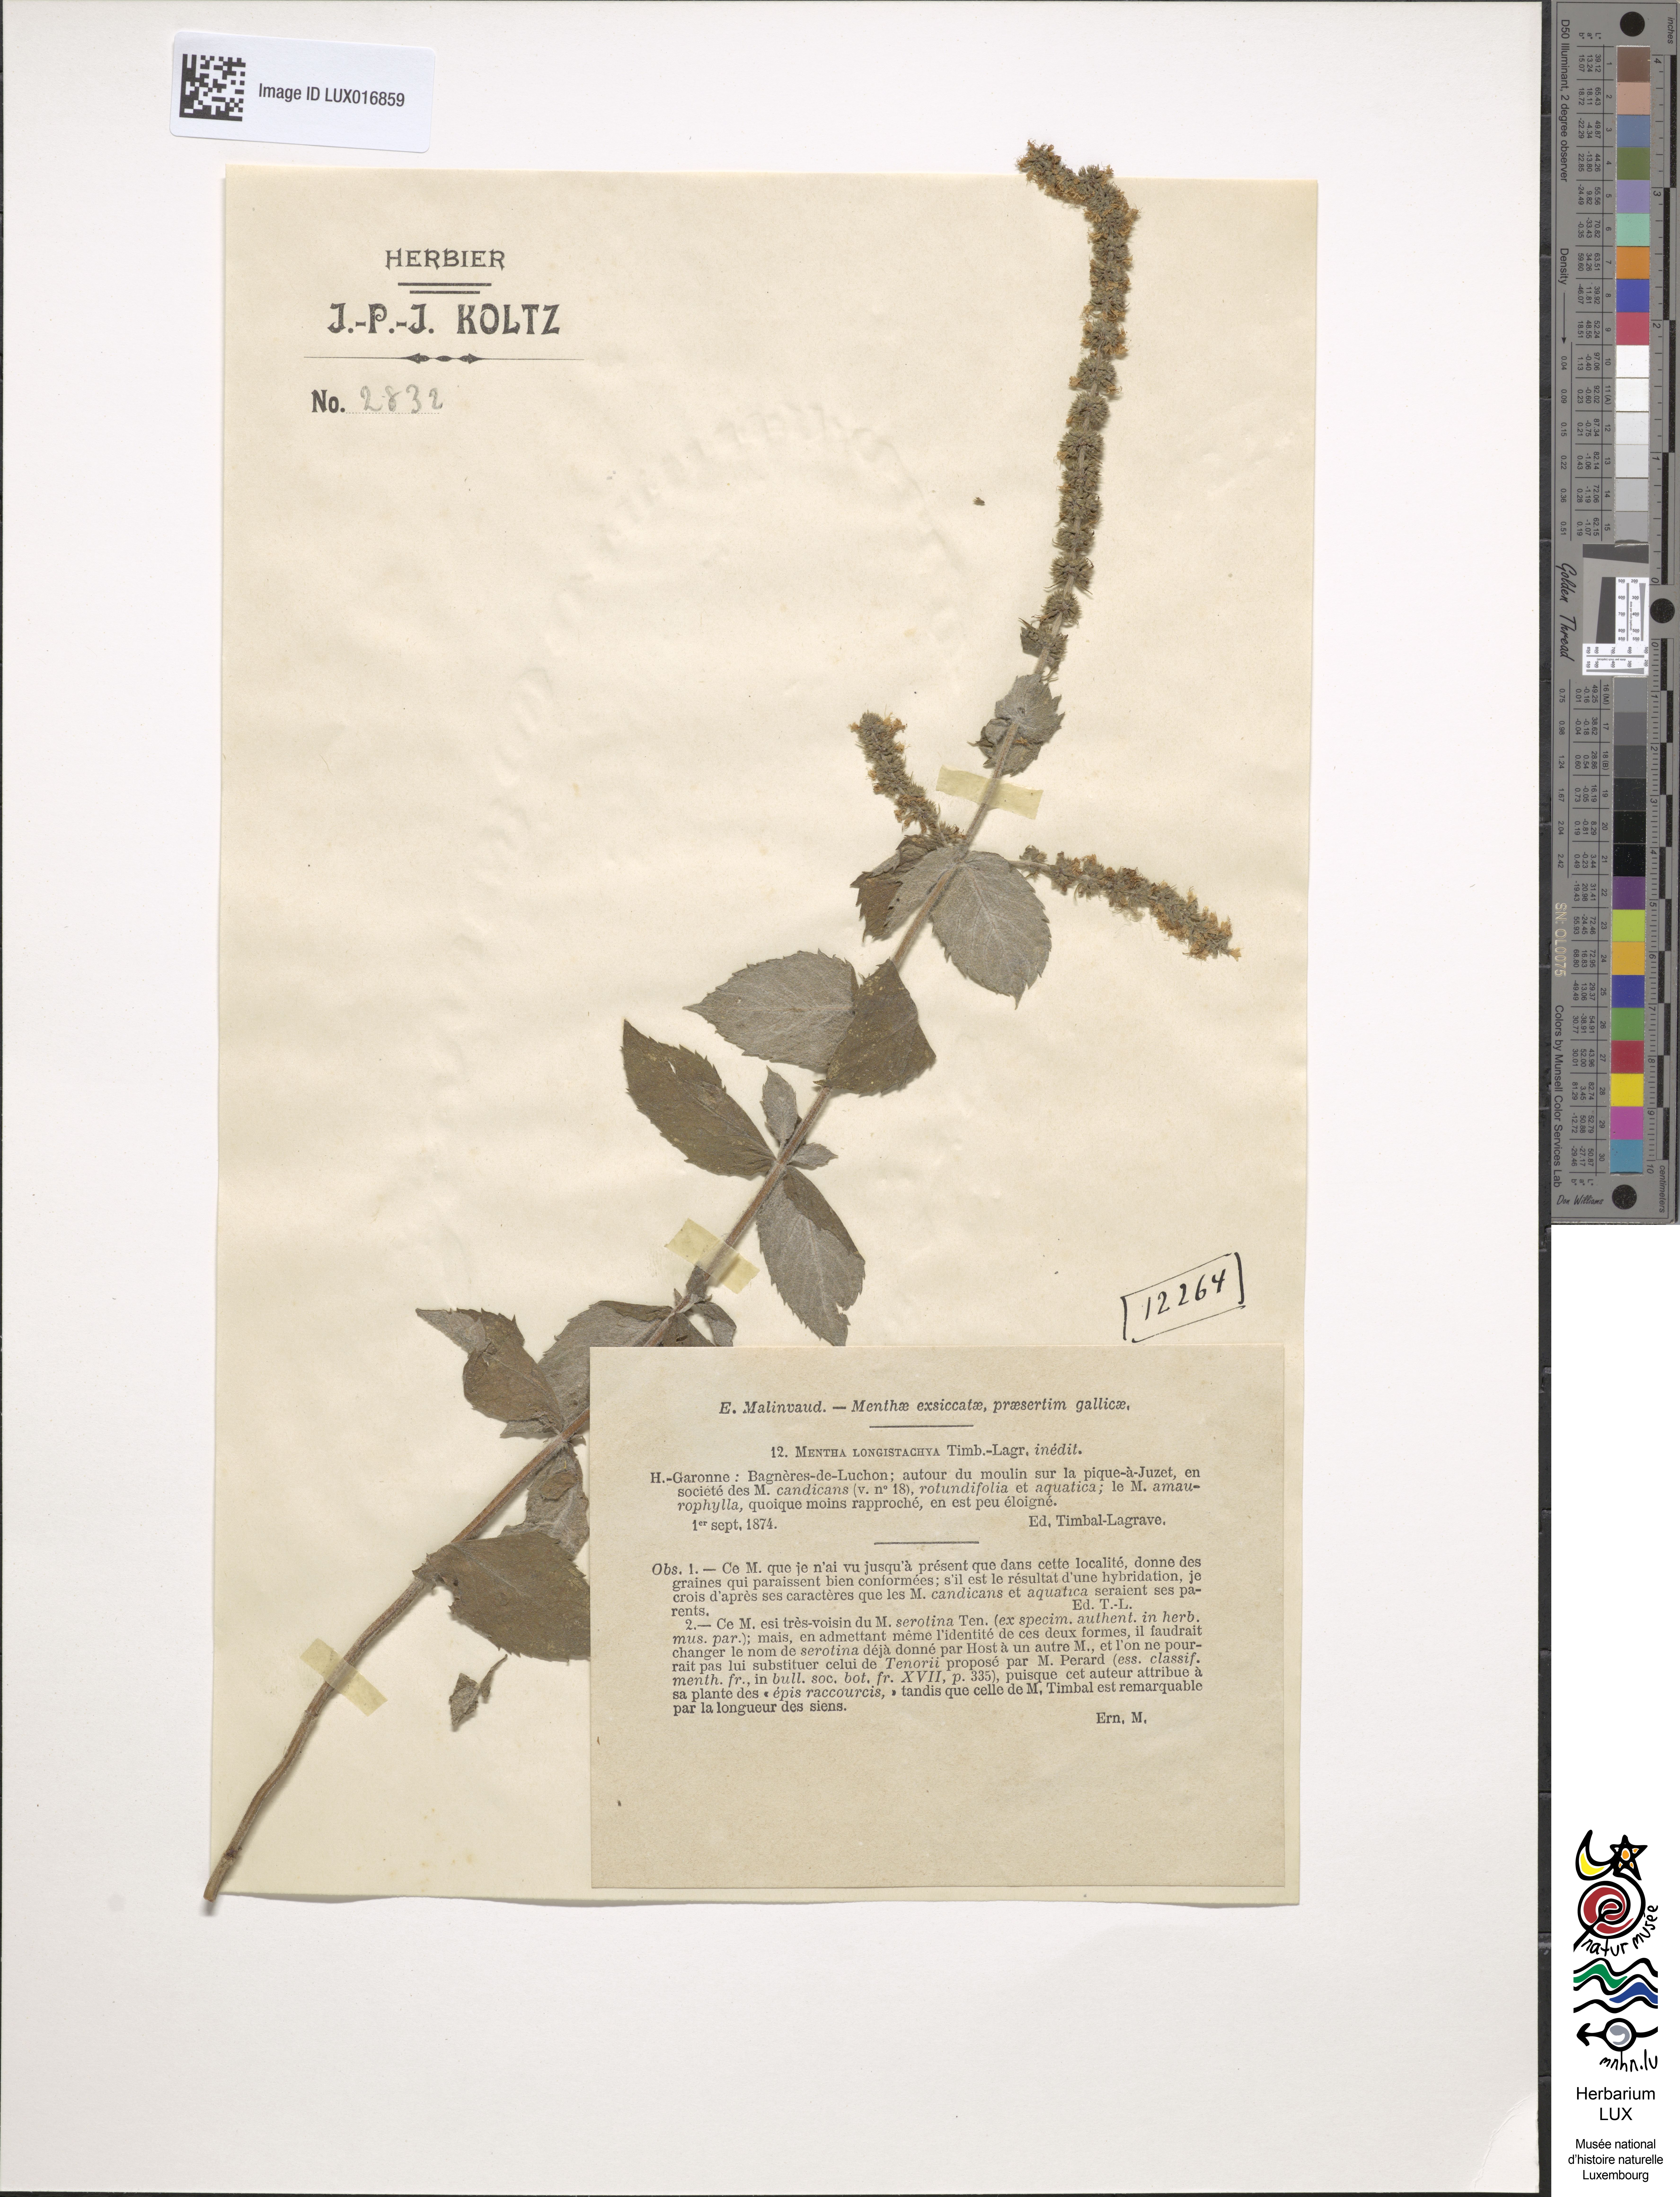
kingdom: Plantae
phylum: Tracheophyta
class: Magnoliopsida
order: Lamiales
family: Lamiaceae
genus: Mentha
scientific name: Mentha villosa
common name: Apple mint
